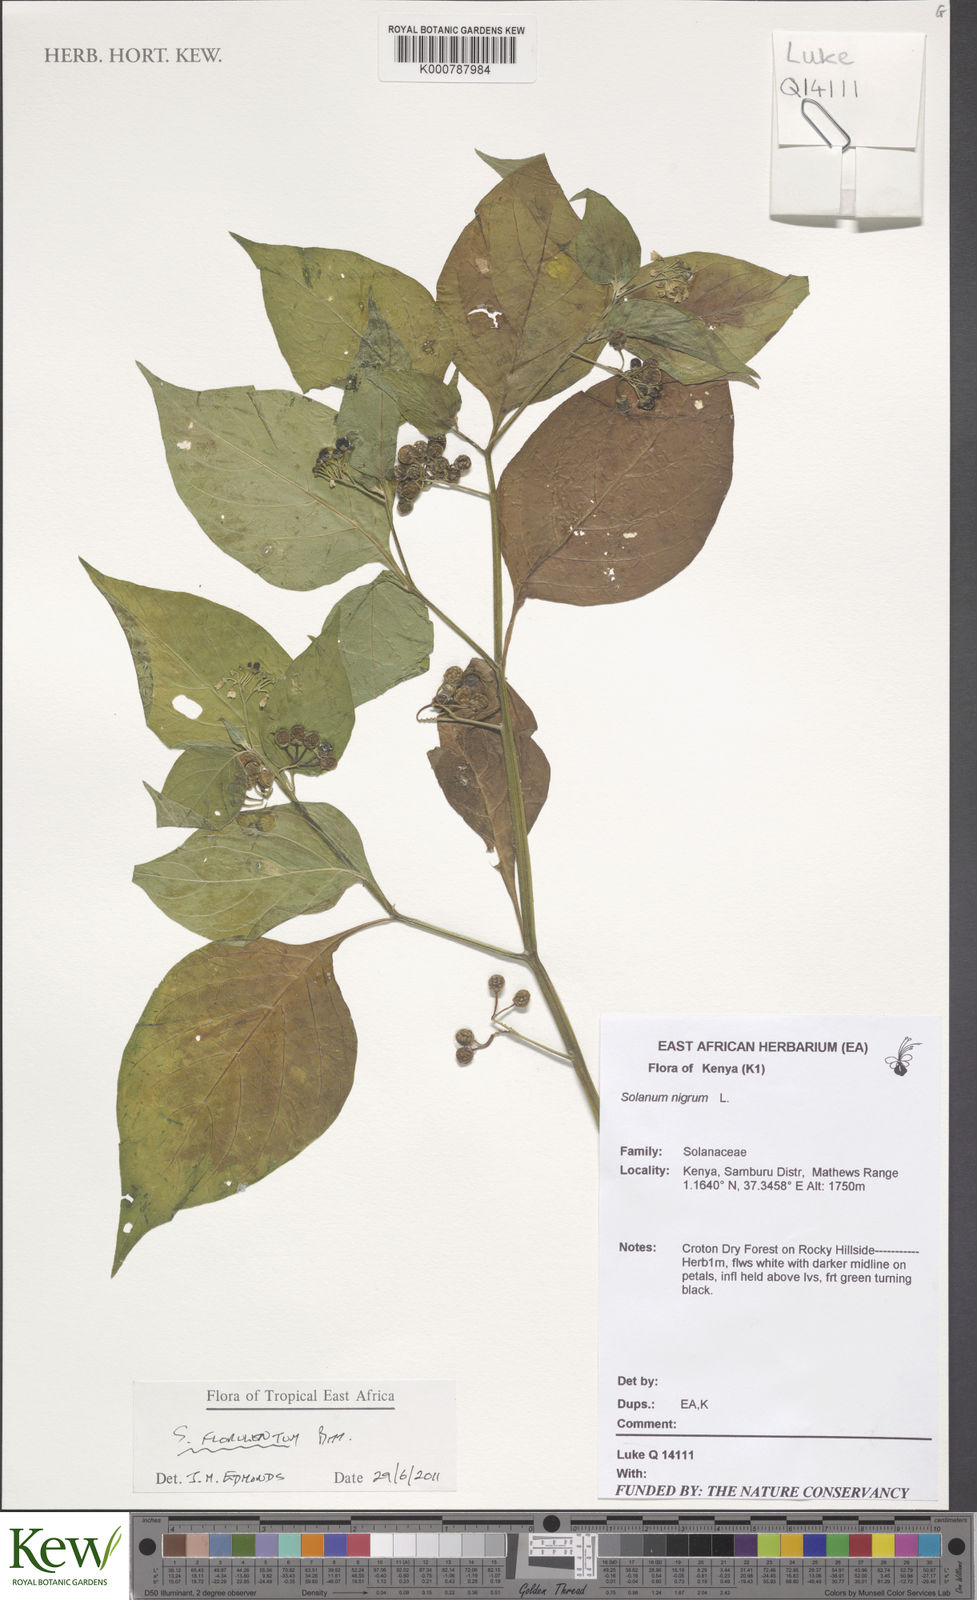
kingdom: Plantae
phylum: Tracheophyta
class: Magnoliopsida
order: Solanales
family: Solanaceae
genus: Solanum
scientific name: Solanum tarderemotum
